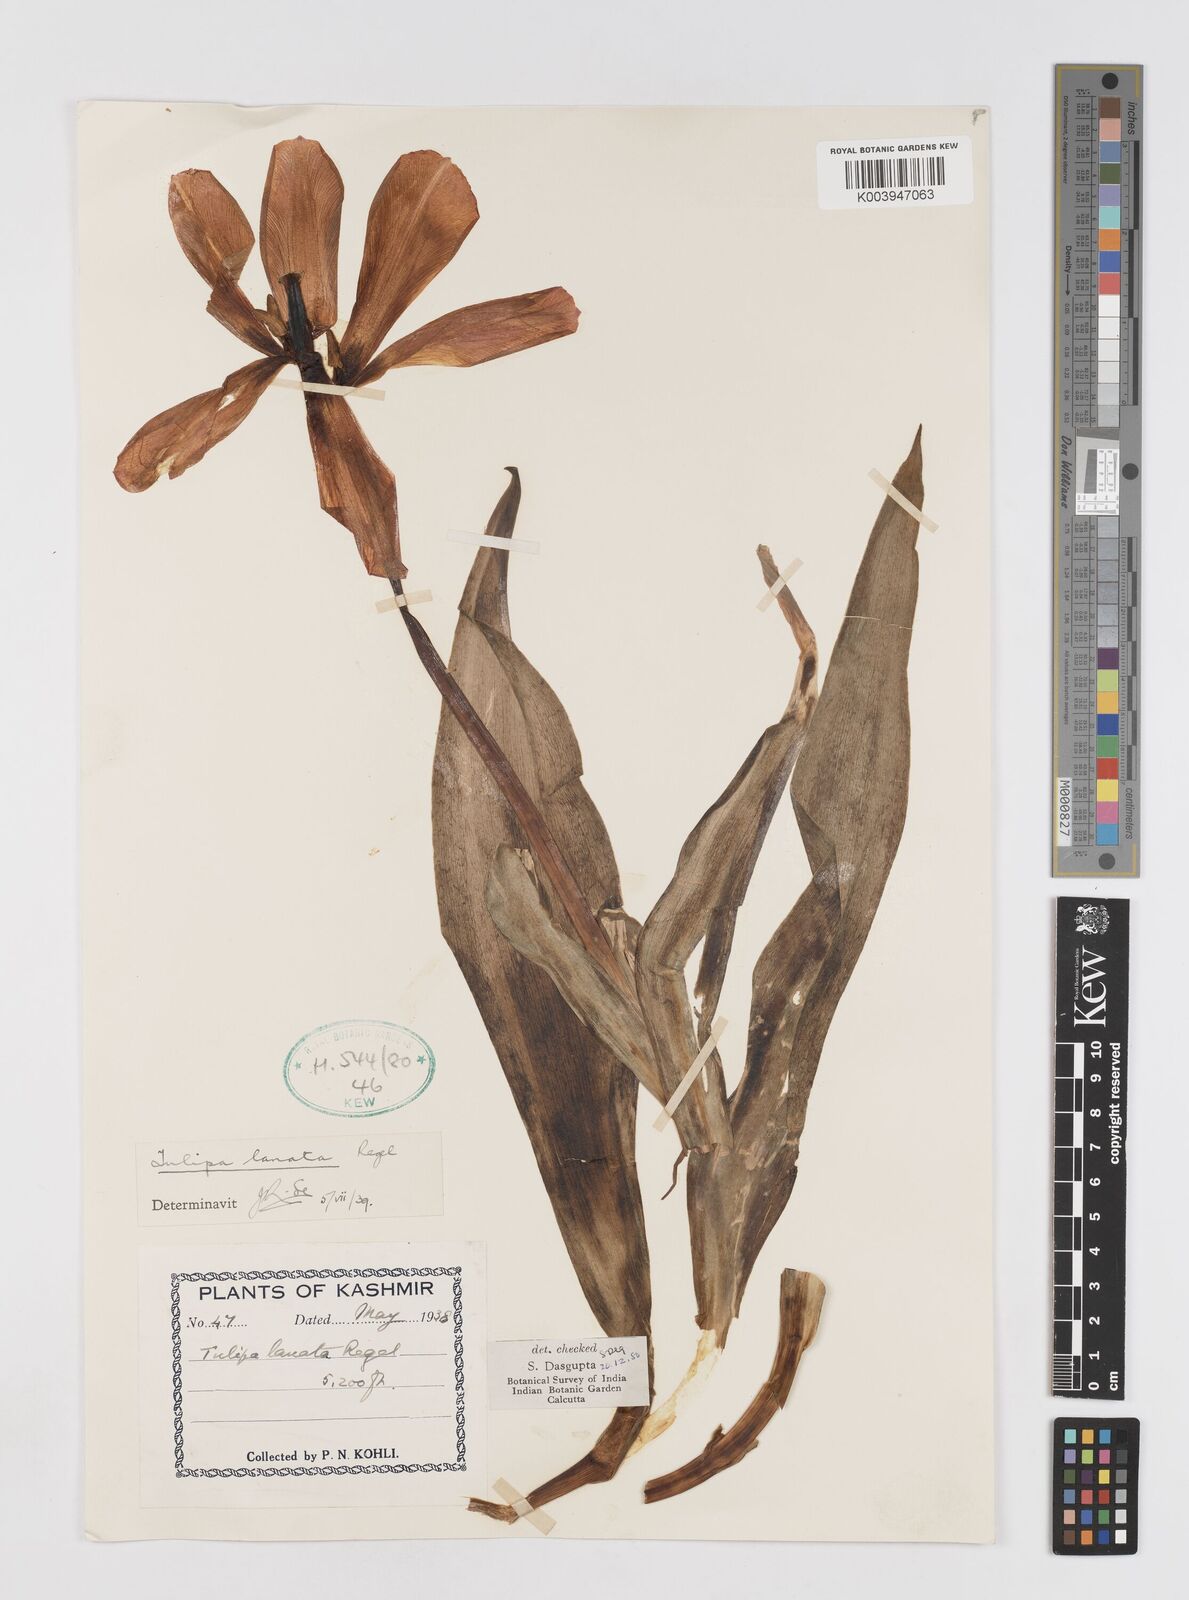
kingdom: Plantae
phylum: Tracheophyta
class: Liliopsida
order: Liliales
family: Liliaceae
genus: Tulipa
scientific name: Tulipa lanata
